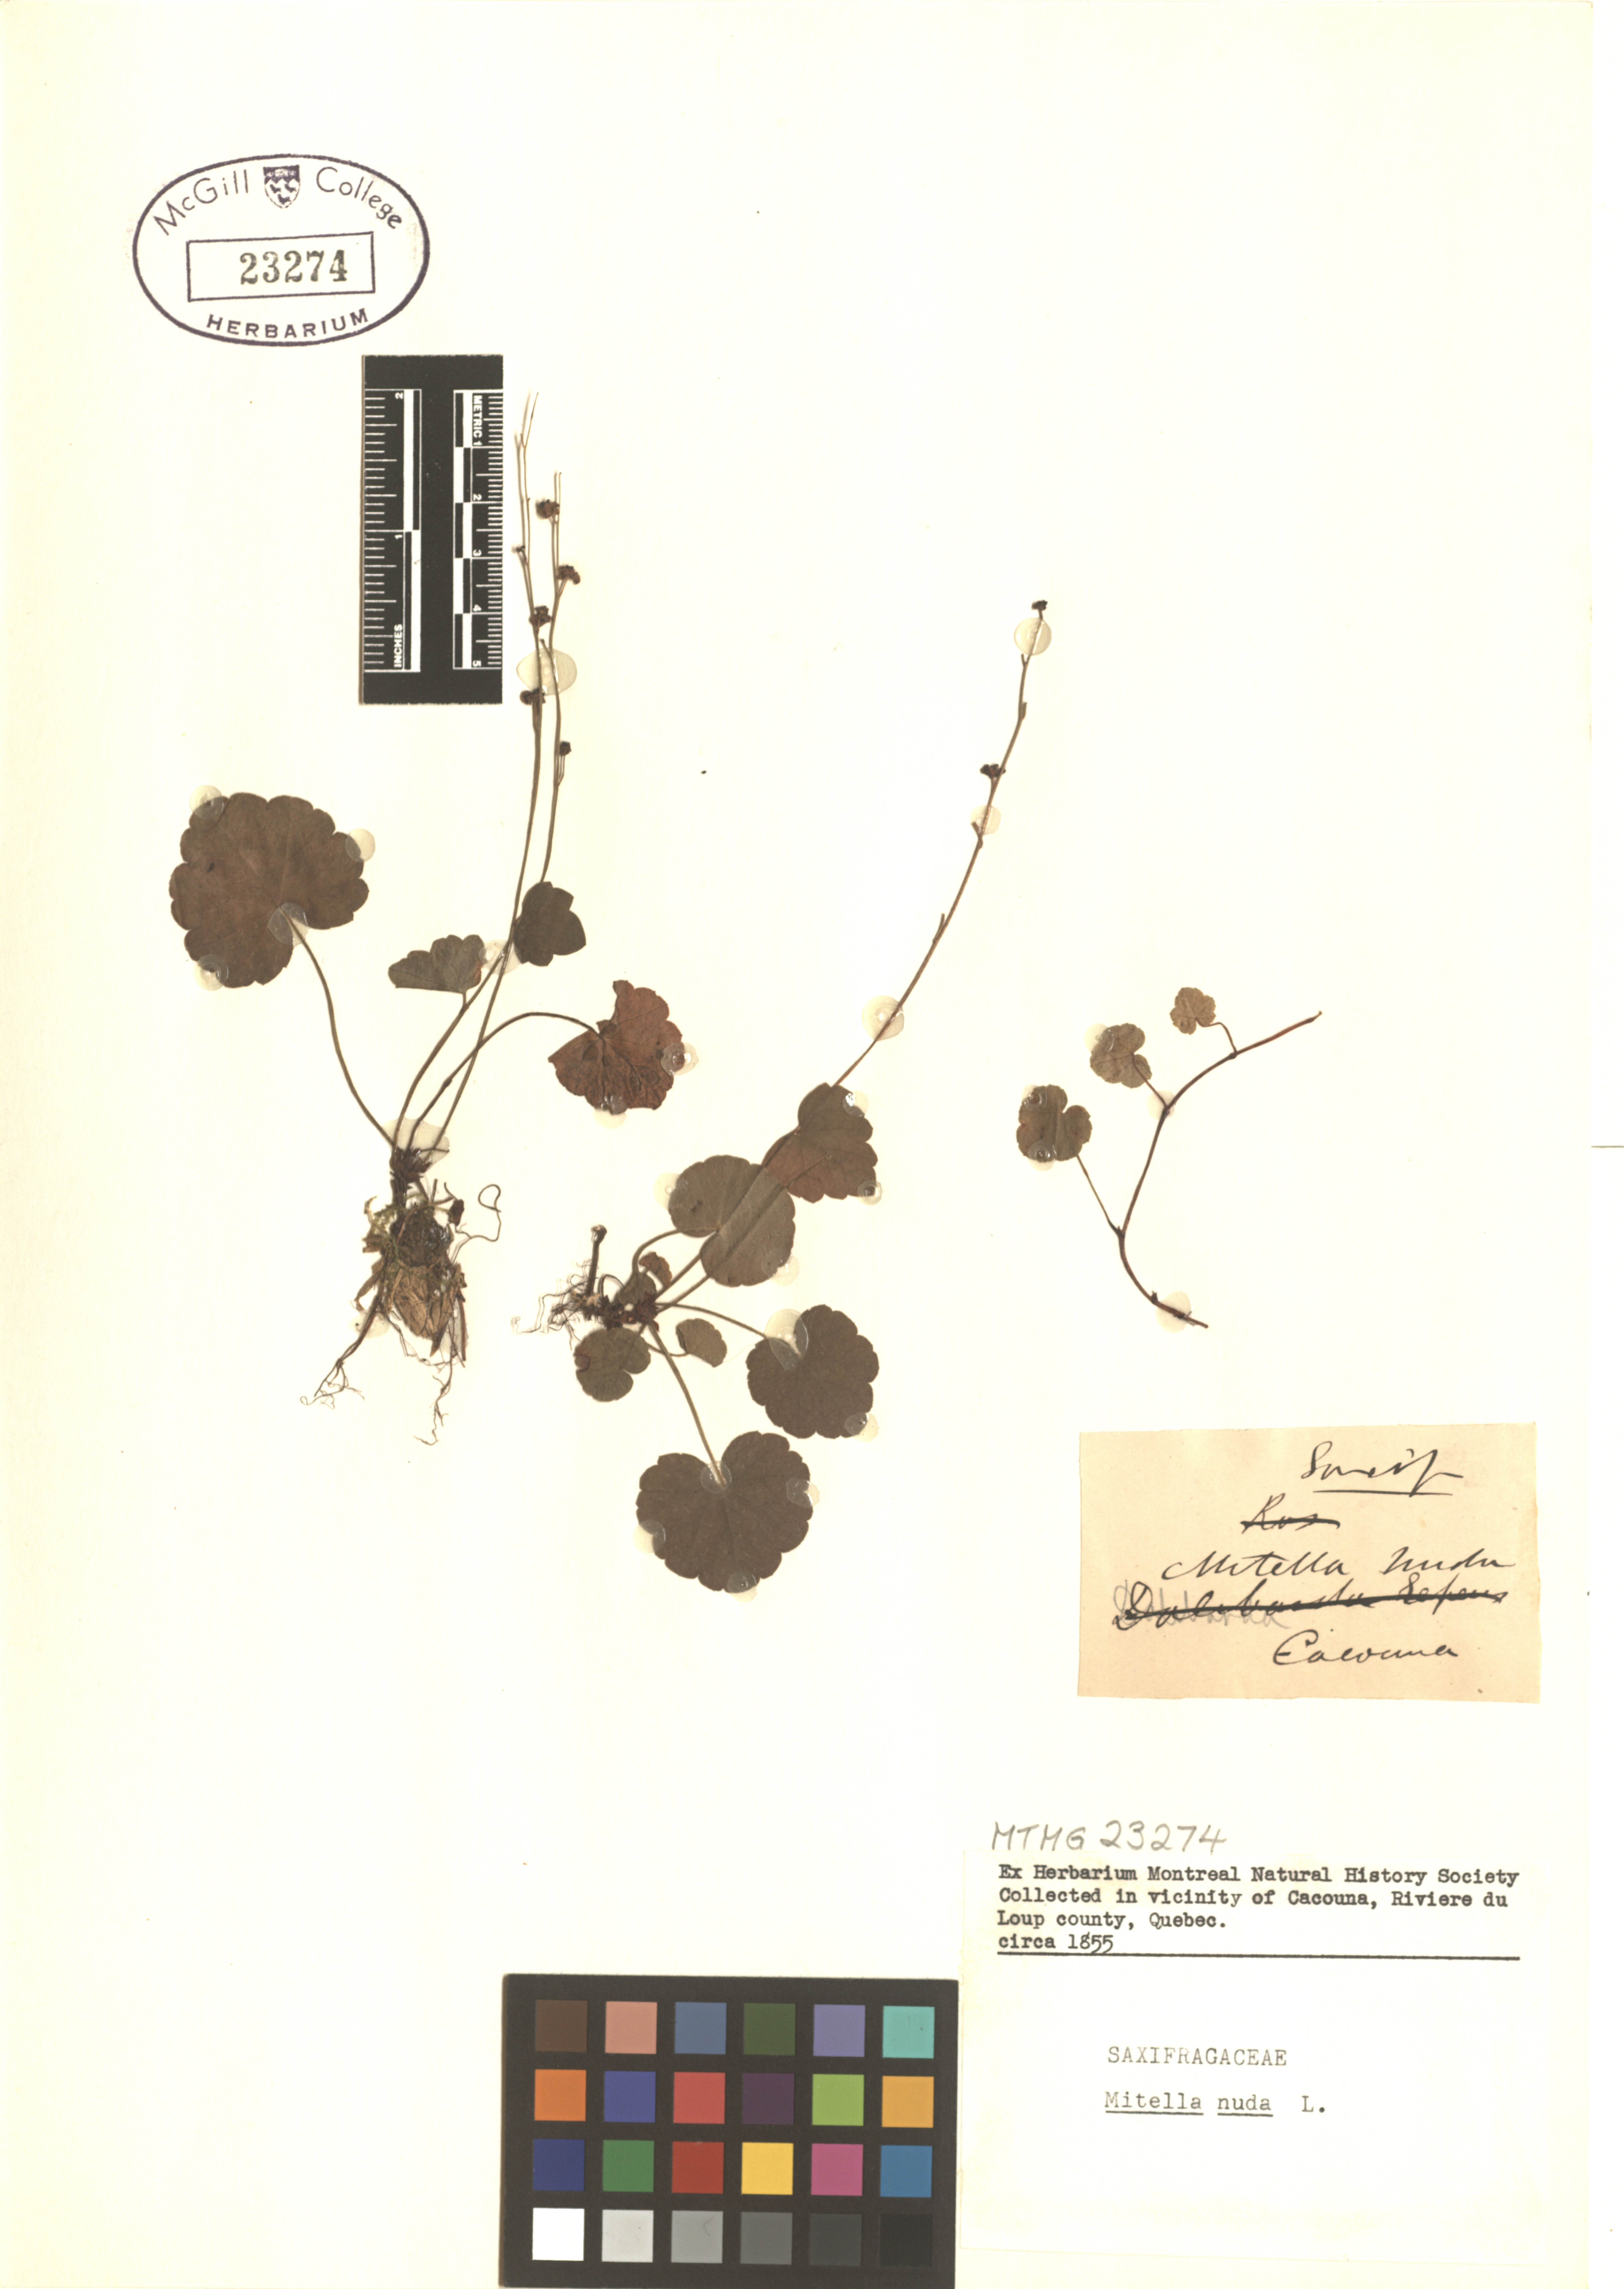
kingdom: Plantae
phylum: Tracheophyta
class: Magnoliopsida
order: Saxifragales
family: Saxifragaceae
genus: Mitella
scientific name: Mitella nuda
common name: Bare-stemmed bishop's-cap
